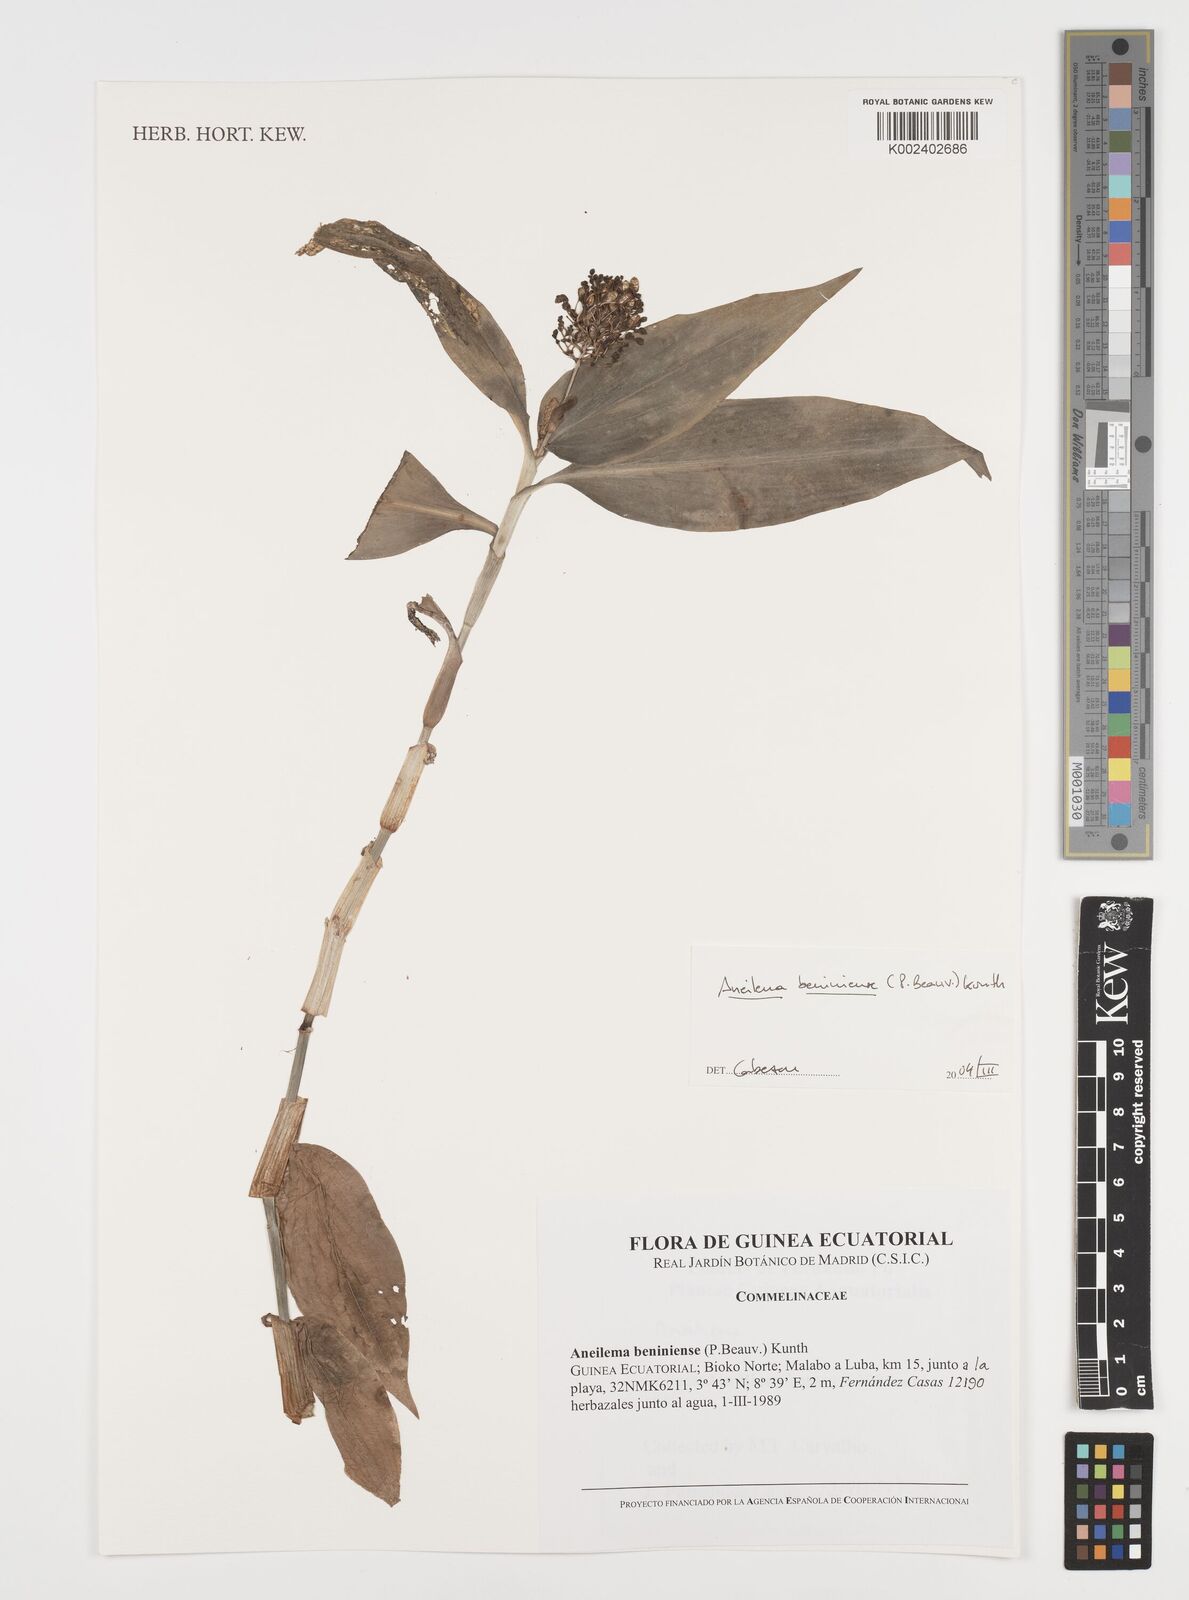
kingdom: Plantae
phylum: Tracheophyta
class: Liliopsida
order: Commelinales
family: Commelinaceae
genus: Aneilema
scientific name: Aneilema beniniense
